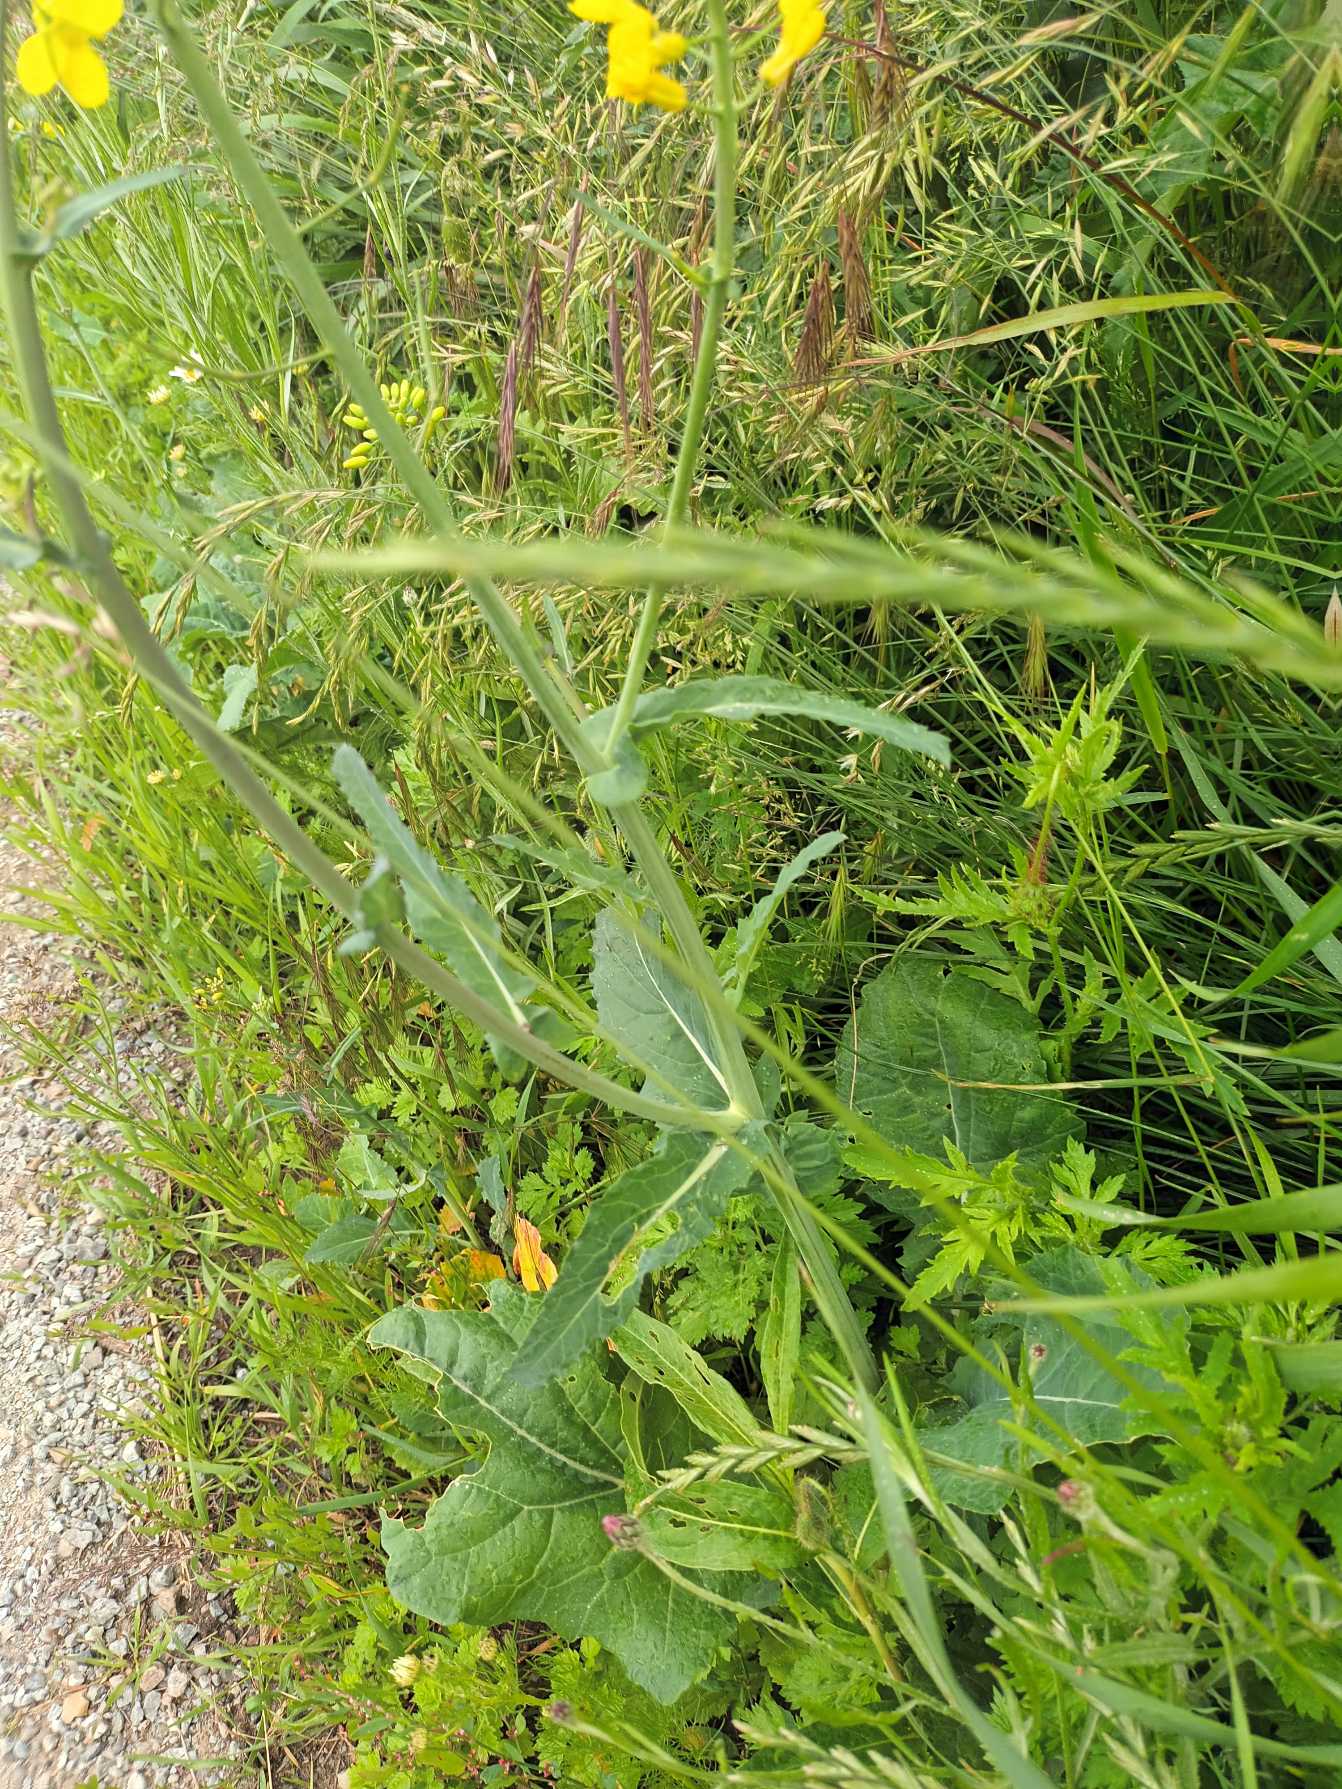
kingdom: Plantae
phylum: Tracheophyta
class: Magnoliopsida
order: Brassicales
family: Brassicaceae
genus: Brassica
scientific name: Brassica napus
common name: Raps
